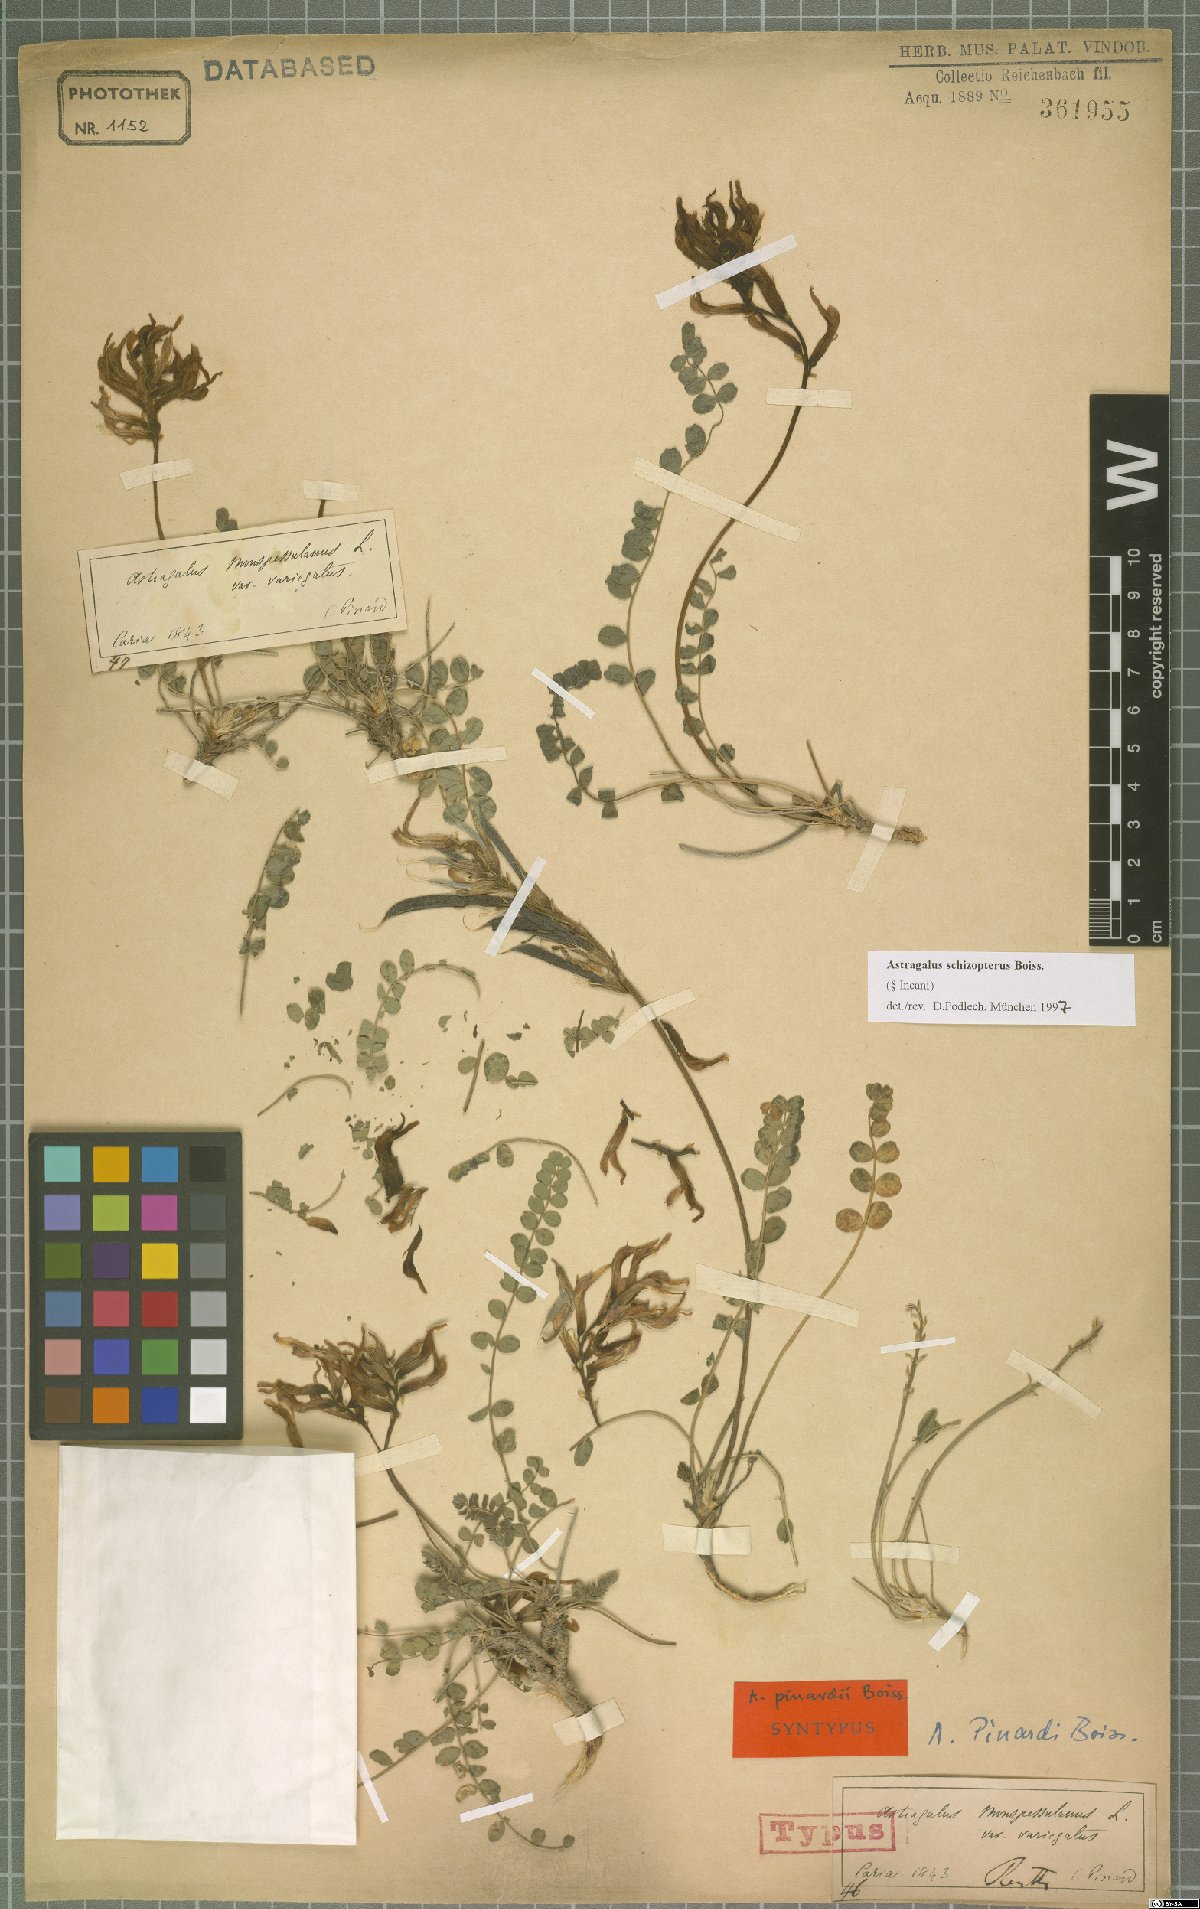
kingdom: Plantae
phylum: Tracheophyta
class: Magnoliopsida
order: Fabales
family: Fabaceae
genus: Astragalus
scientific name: Astragalus schizopterus
